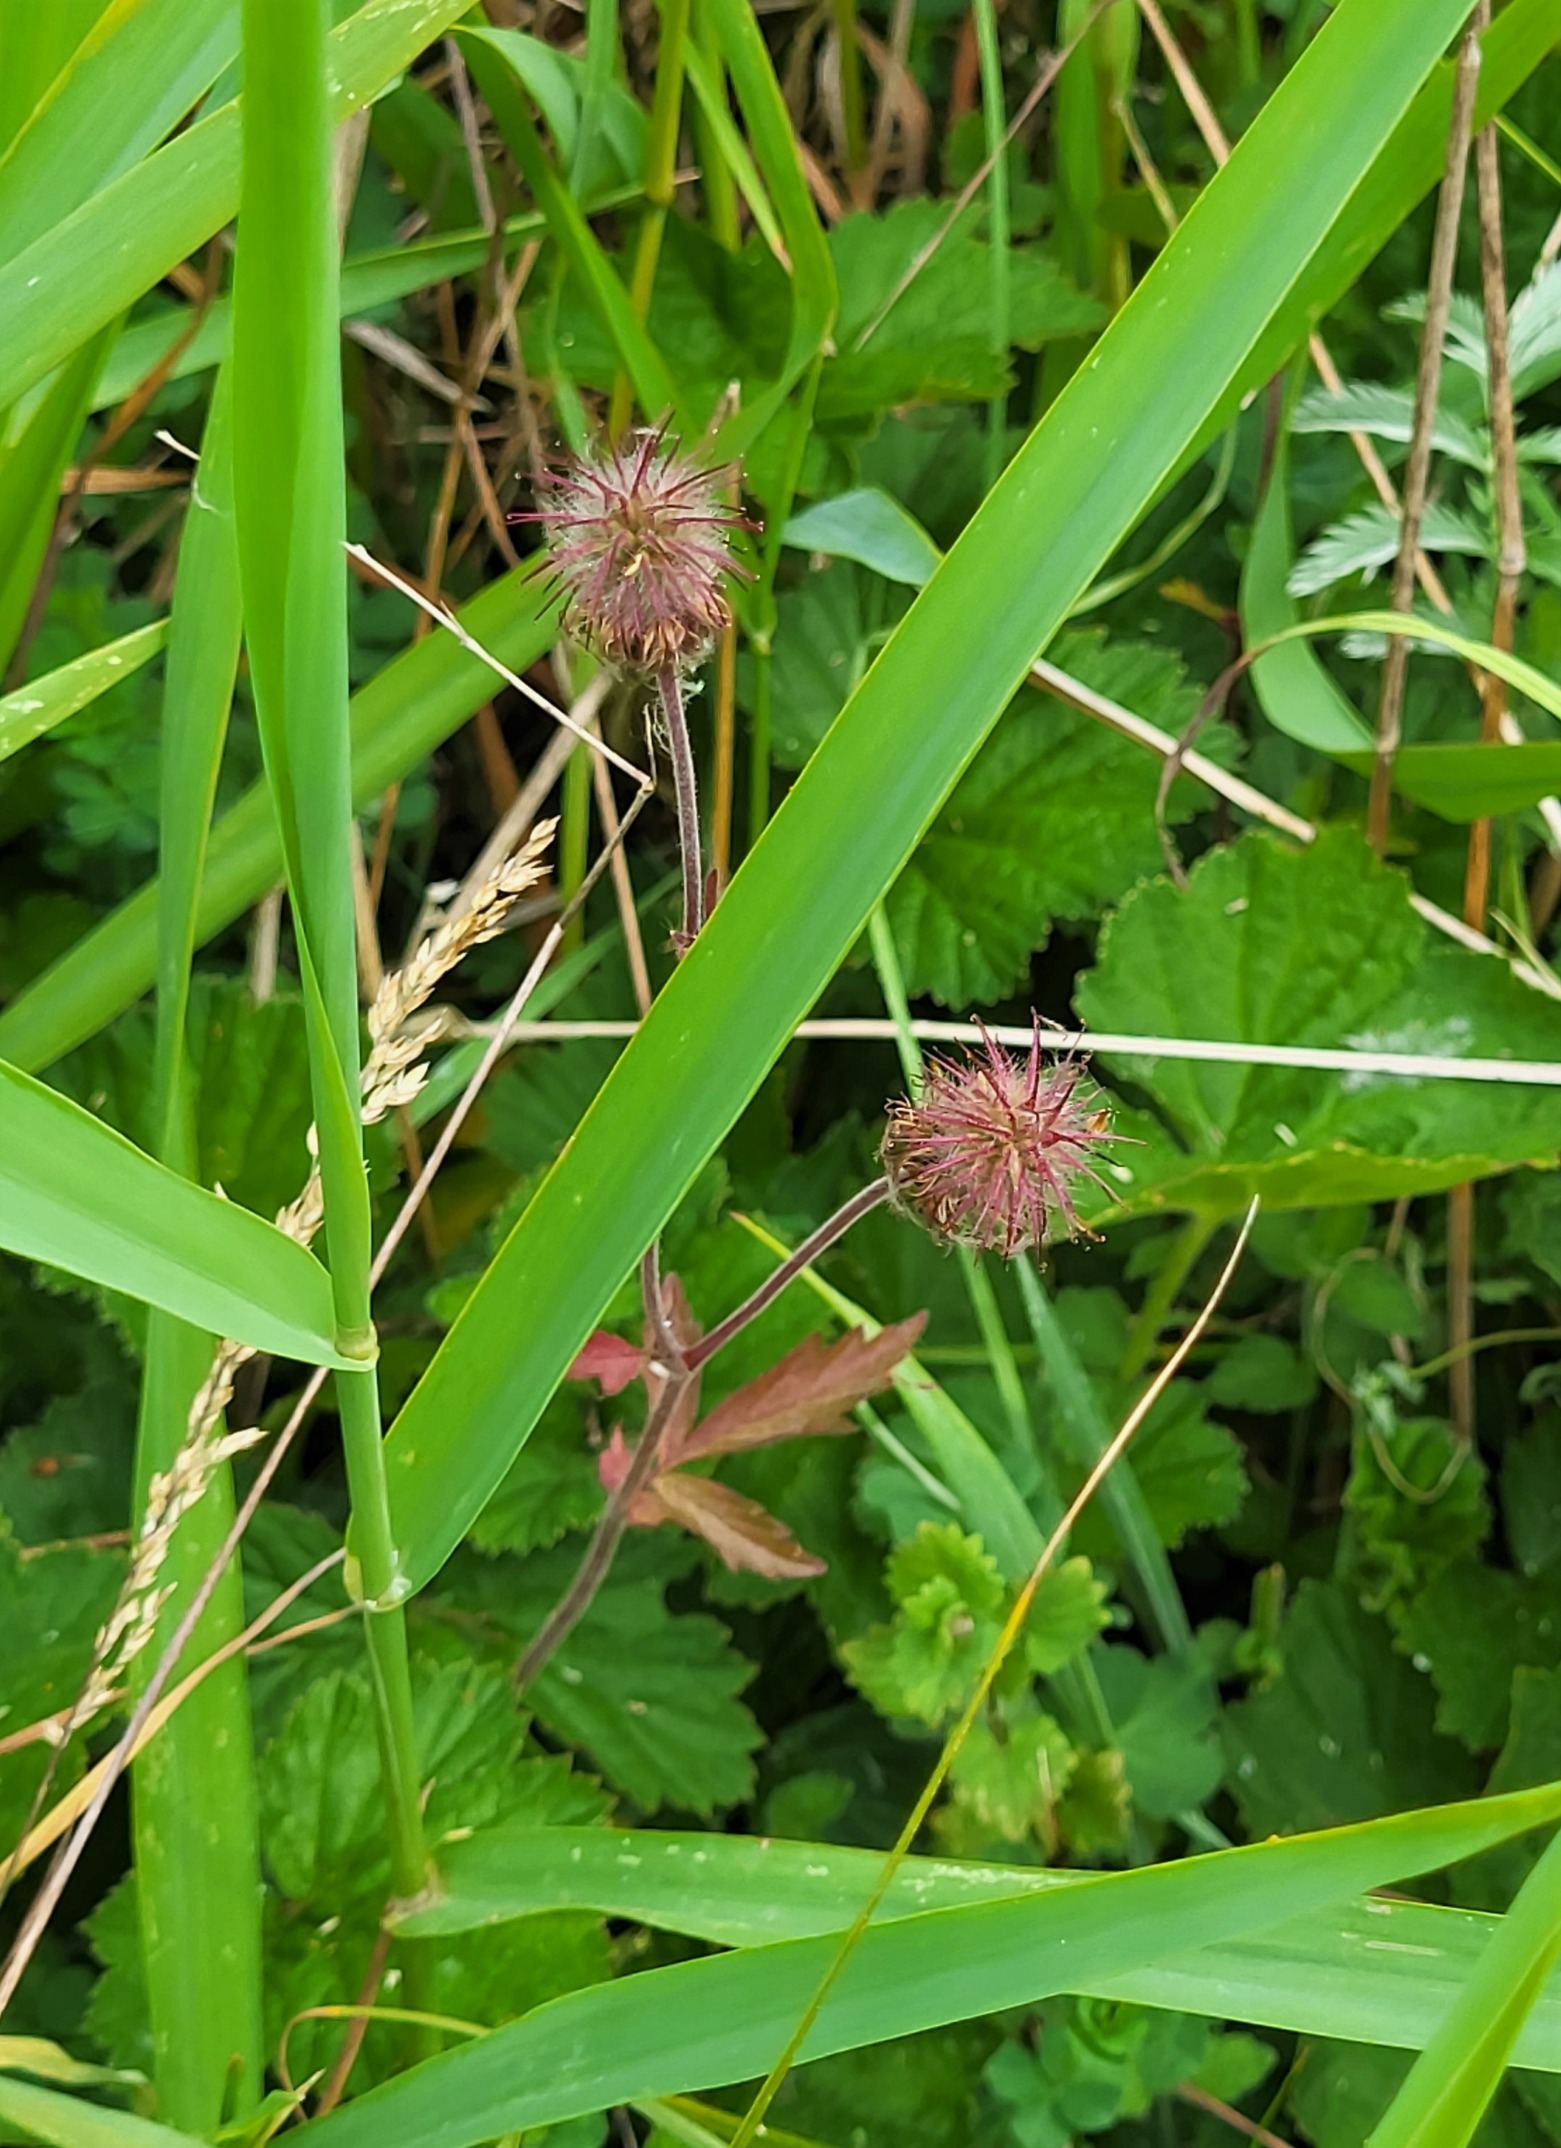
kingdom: Plantae
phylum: Tracheophyta
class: Magnoliopsida
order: Rosales
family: Rosaceae
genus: Geum
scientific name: Geum rivale
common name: Eng-nellikerod
